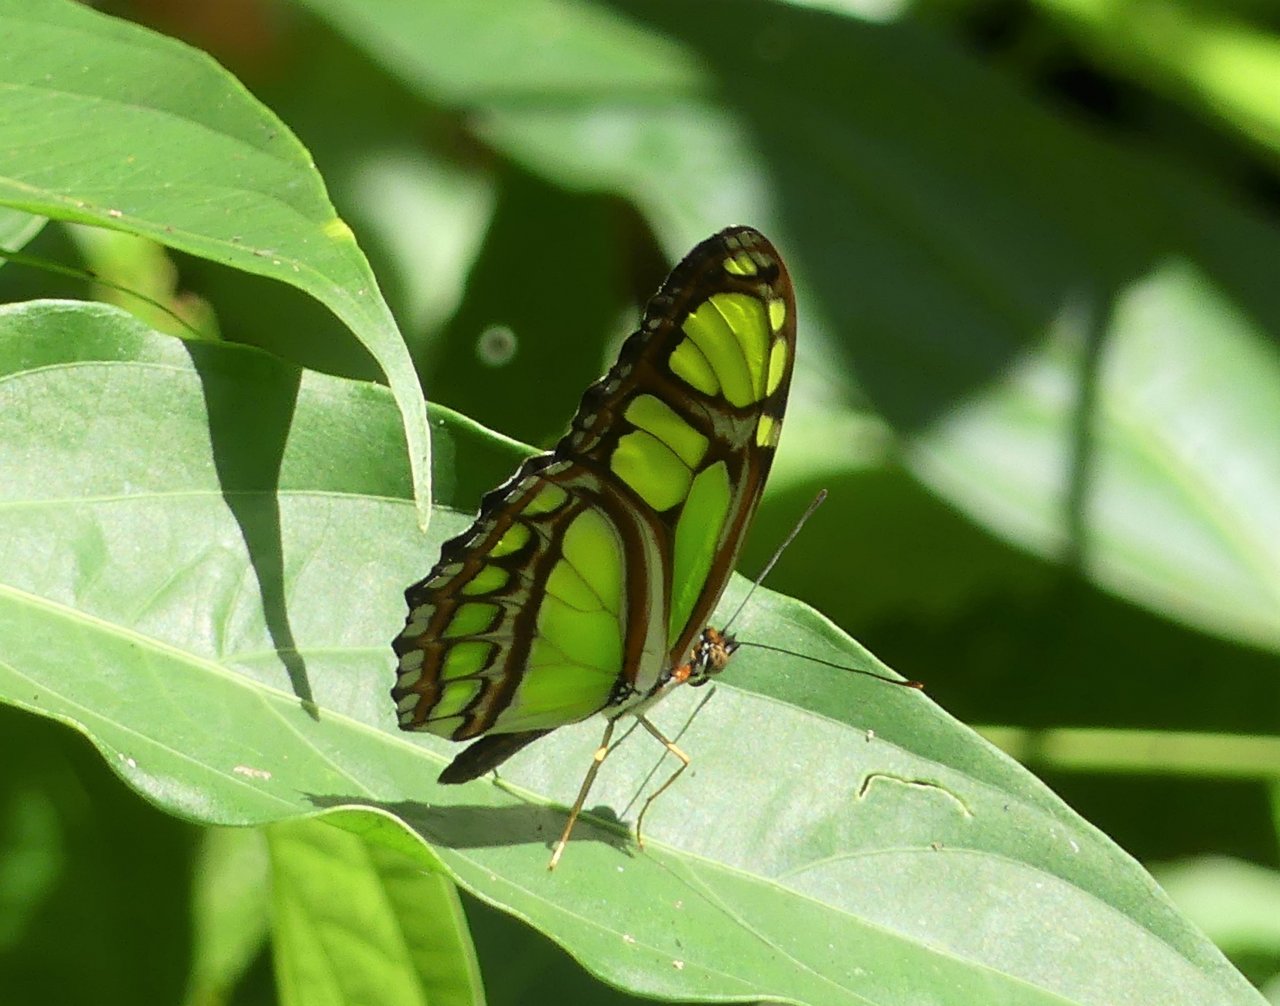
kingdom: Animalia
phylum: Arthropoda
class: Insecta
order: Lepidoptera
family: Nymphalidae
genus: Philaethria
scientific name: Philaethria dido
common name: Northern Green Longwing
